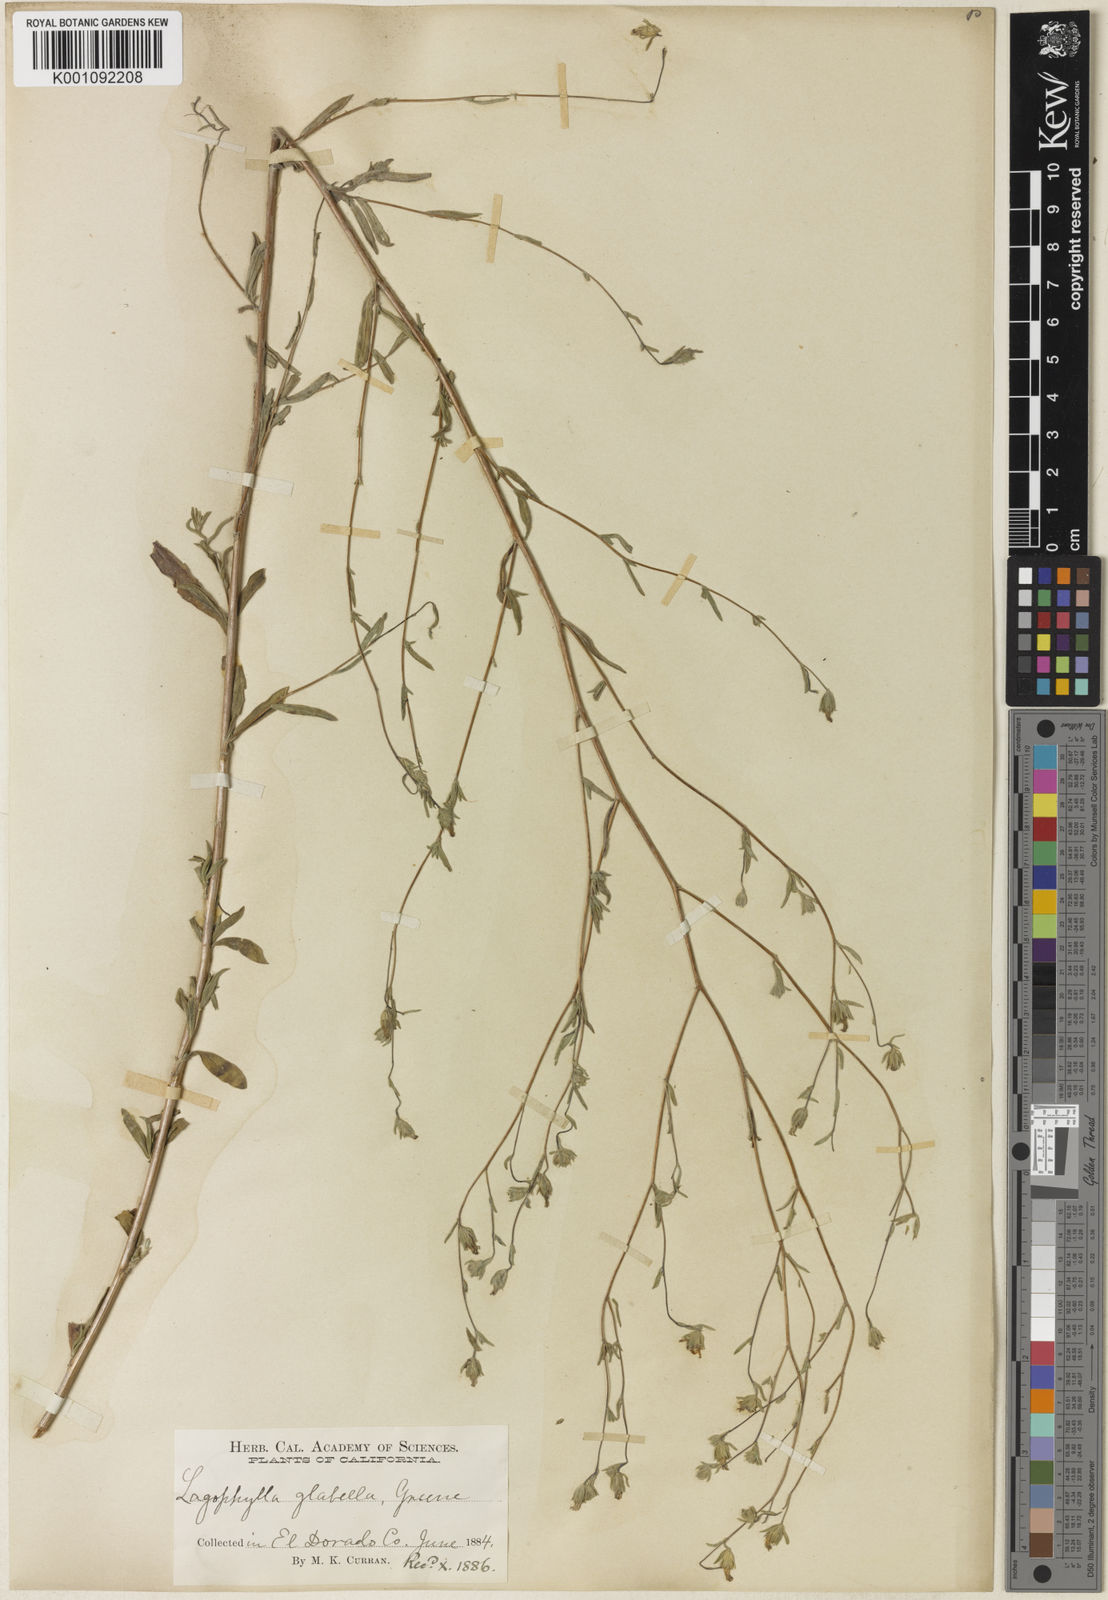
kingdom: Plantae
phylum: Tracheophyta
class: Magnoliopsida
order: Asterales
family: Asteraceae
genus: Lagophylla
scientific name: Lagophylla
